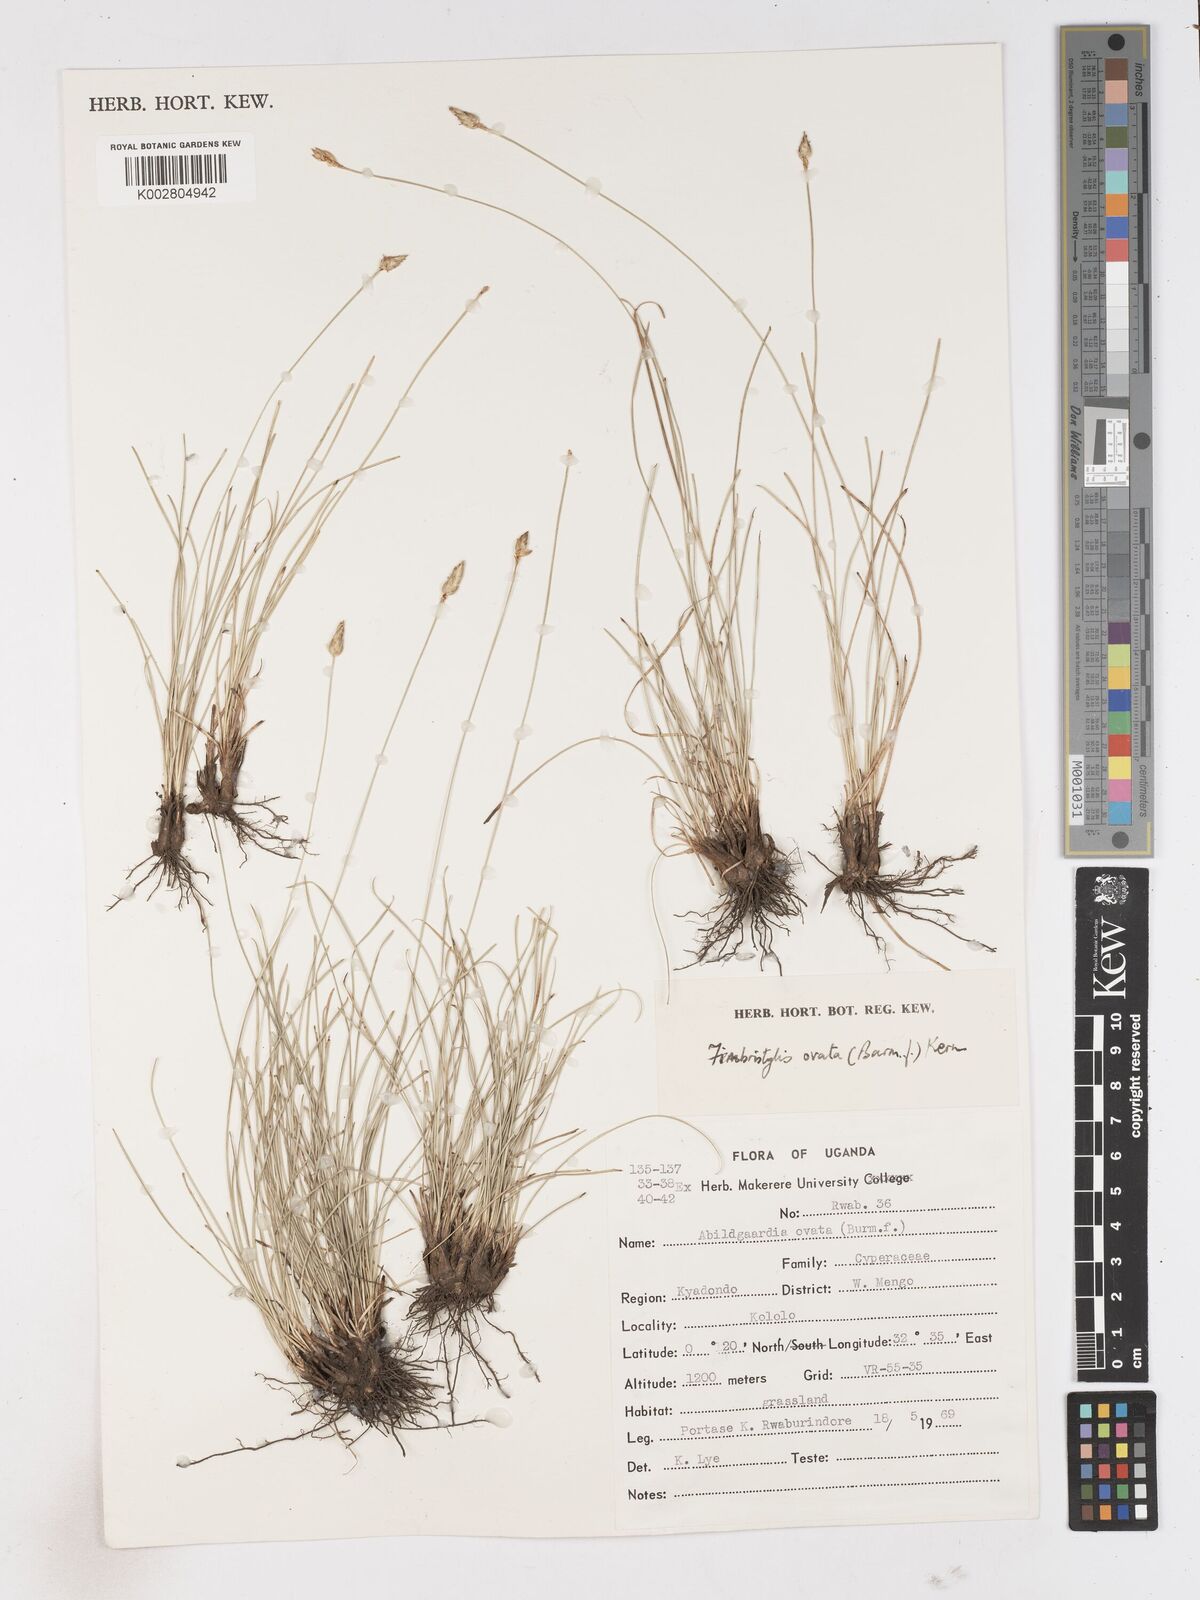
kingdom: Plantae
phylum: Tracheophyta
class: Liliopsida
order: Poales
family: Cyperaceae
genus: Abildgaardia
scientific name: Abildgaardia ovata
